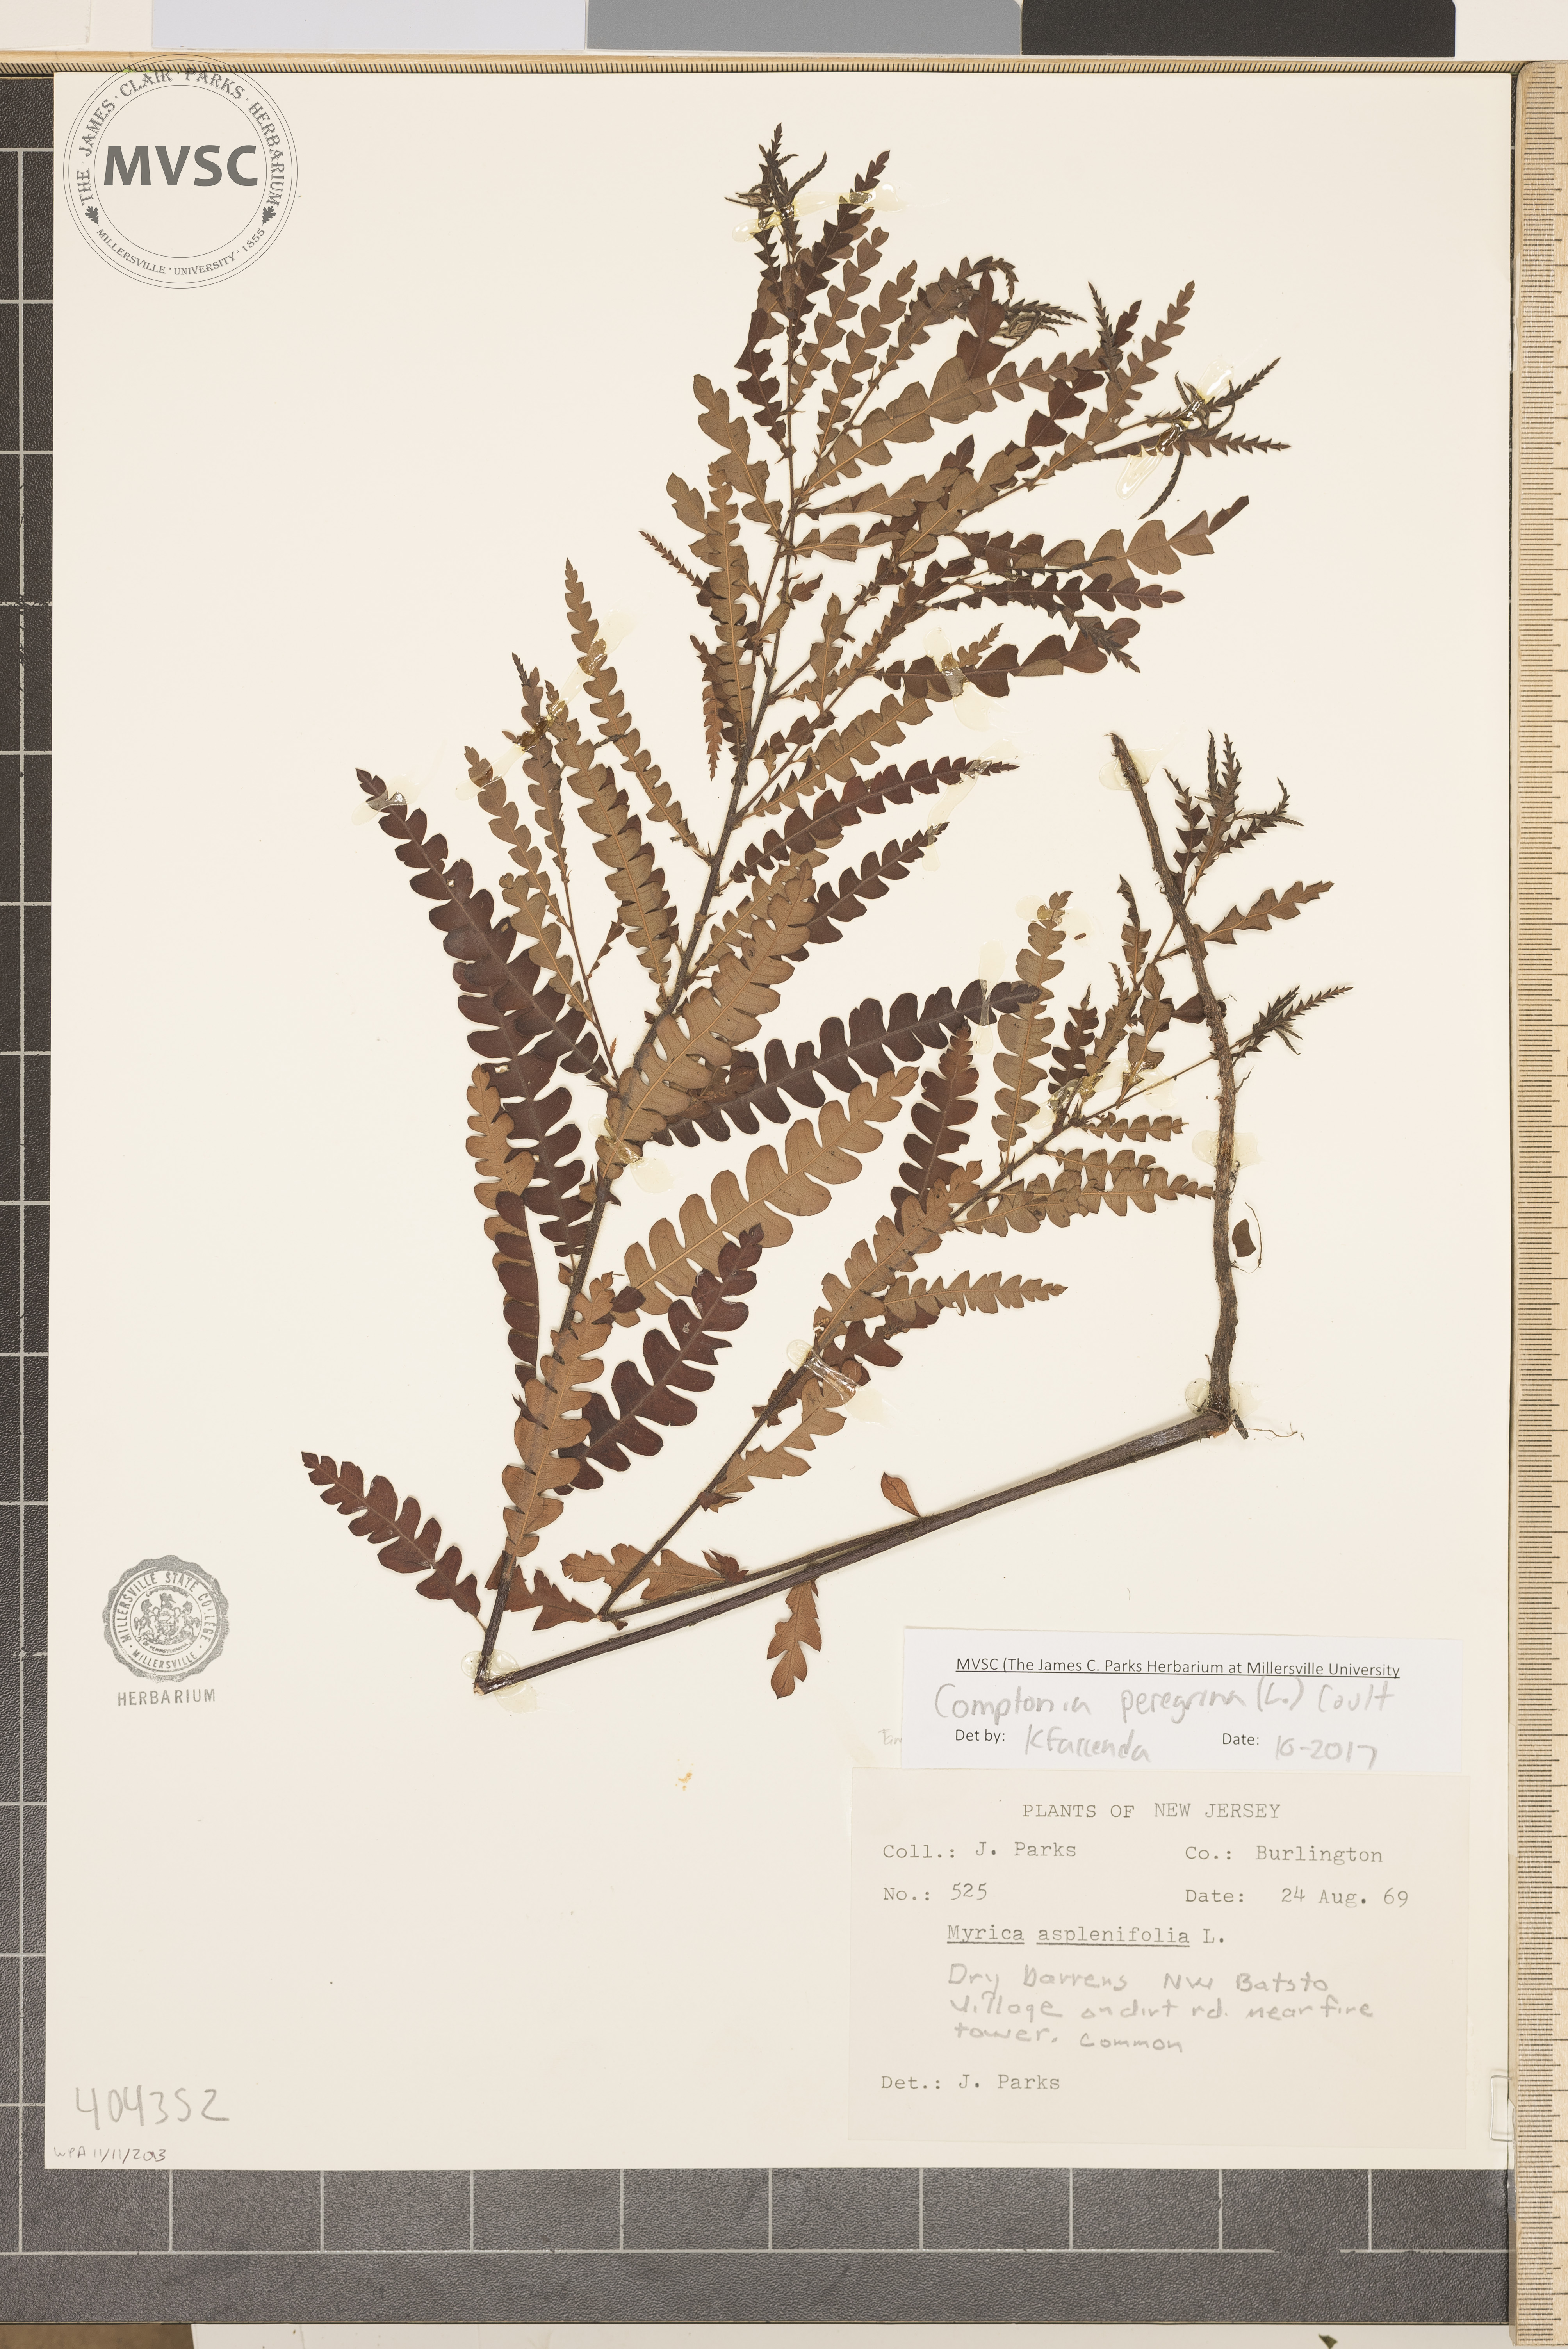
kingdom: Plantae
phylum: Tracheophyta
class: Magnoliopsida
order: Fagales
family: Myricaceae
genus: Comptonia
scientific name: Comptonia peregrina
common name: Sweetfern
